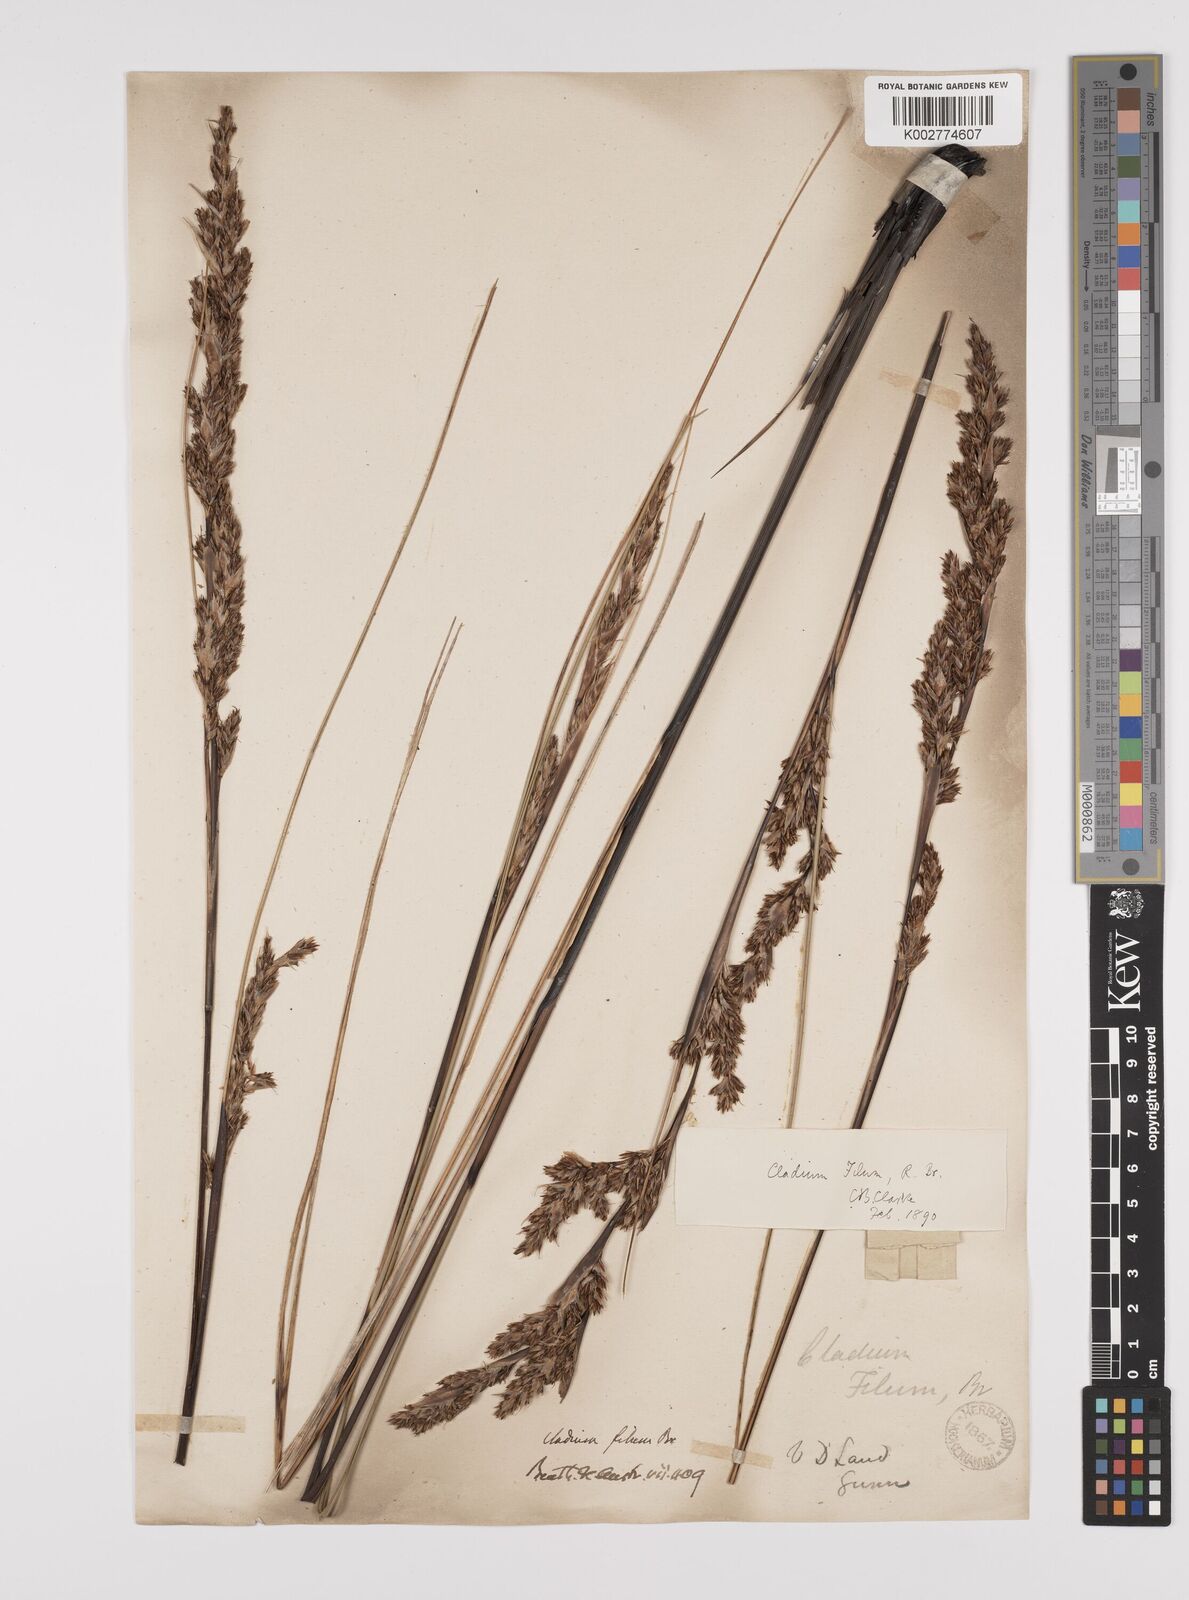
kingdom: Plantae
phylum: Tracheophyta
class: Liliopsida
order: Poales
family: Cyperaceae
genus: Gahnia
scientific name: Gahnia filum
